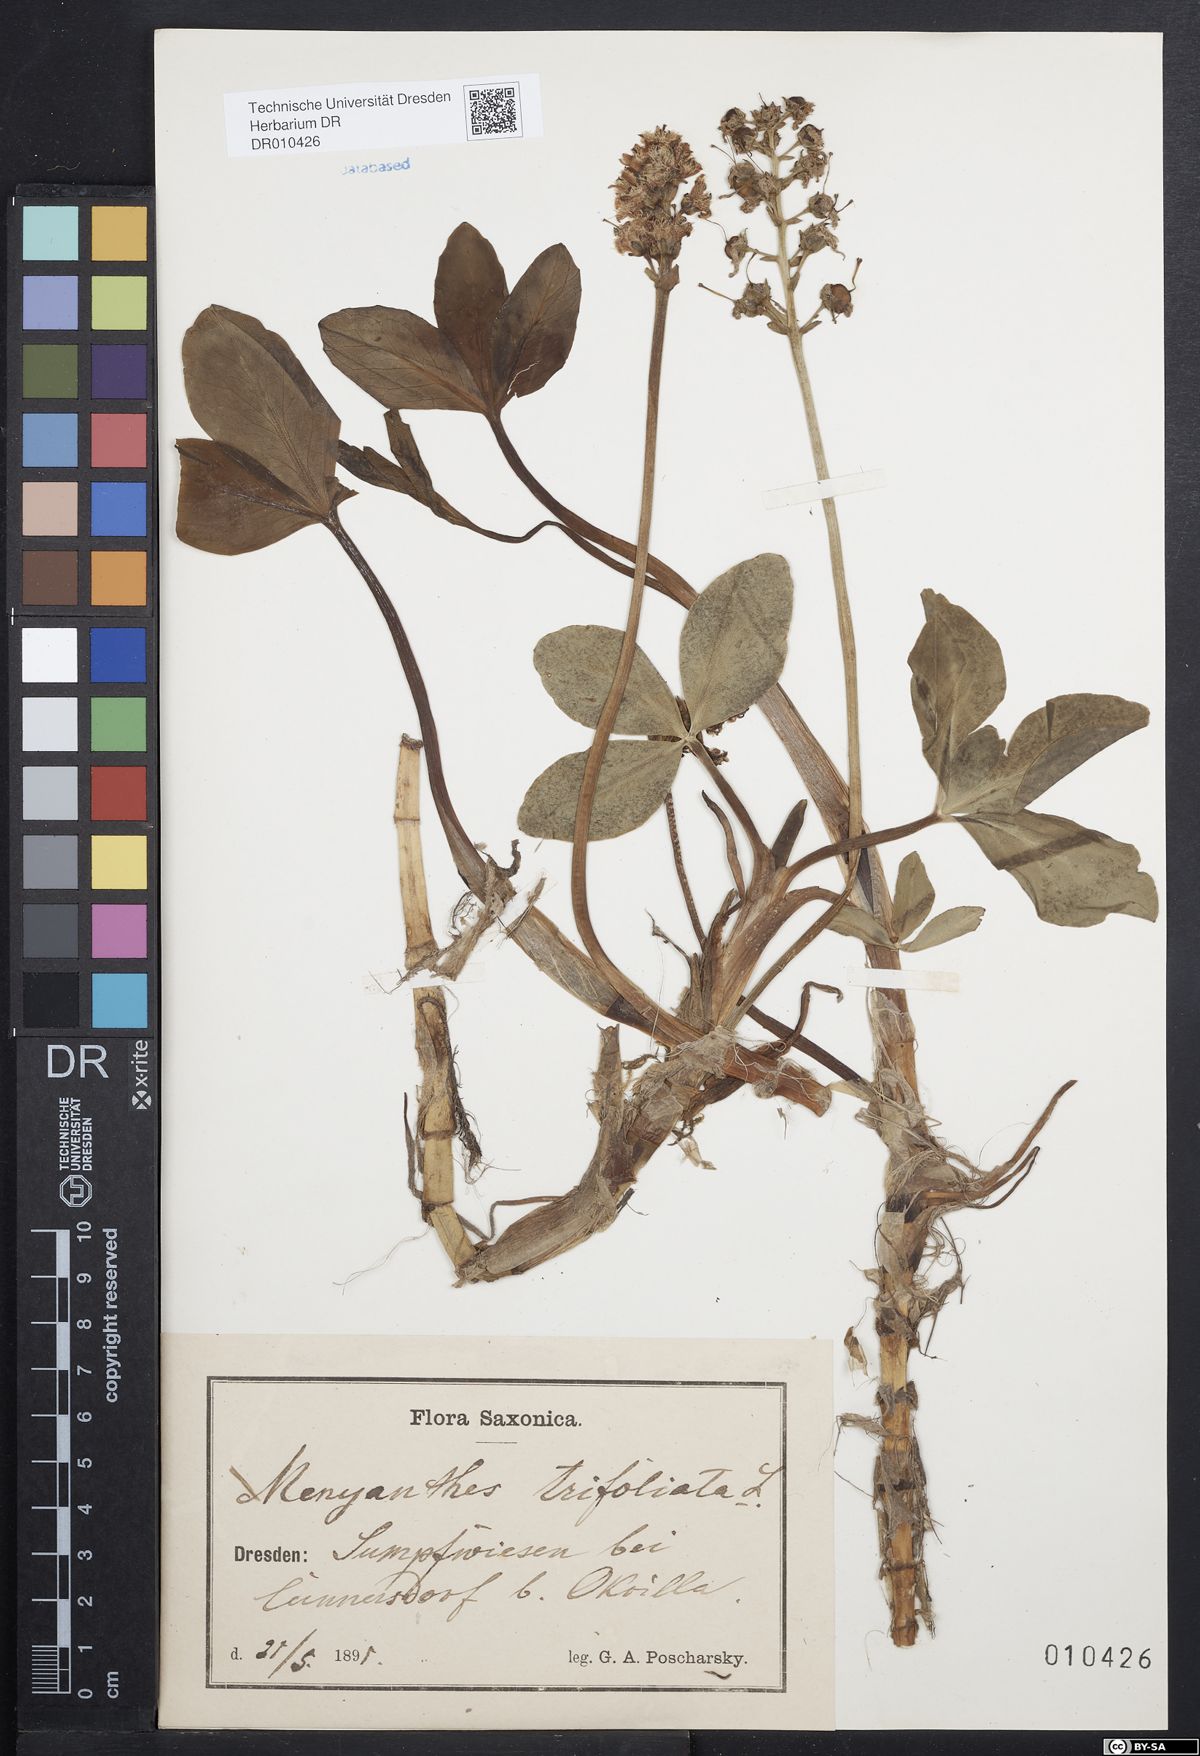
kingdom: Plantae
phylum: Tracheophyta
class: Magnoliopsida
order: Asterales
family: Menyanthaceae
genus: Menyanthes
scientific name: Menyanthes trifoliata
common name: Bogbean
